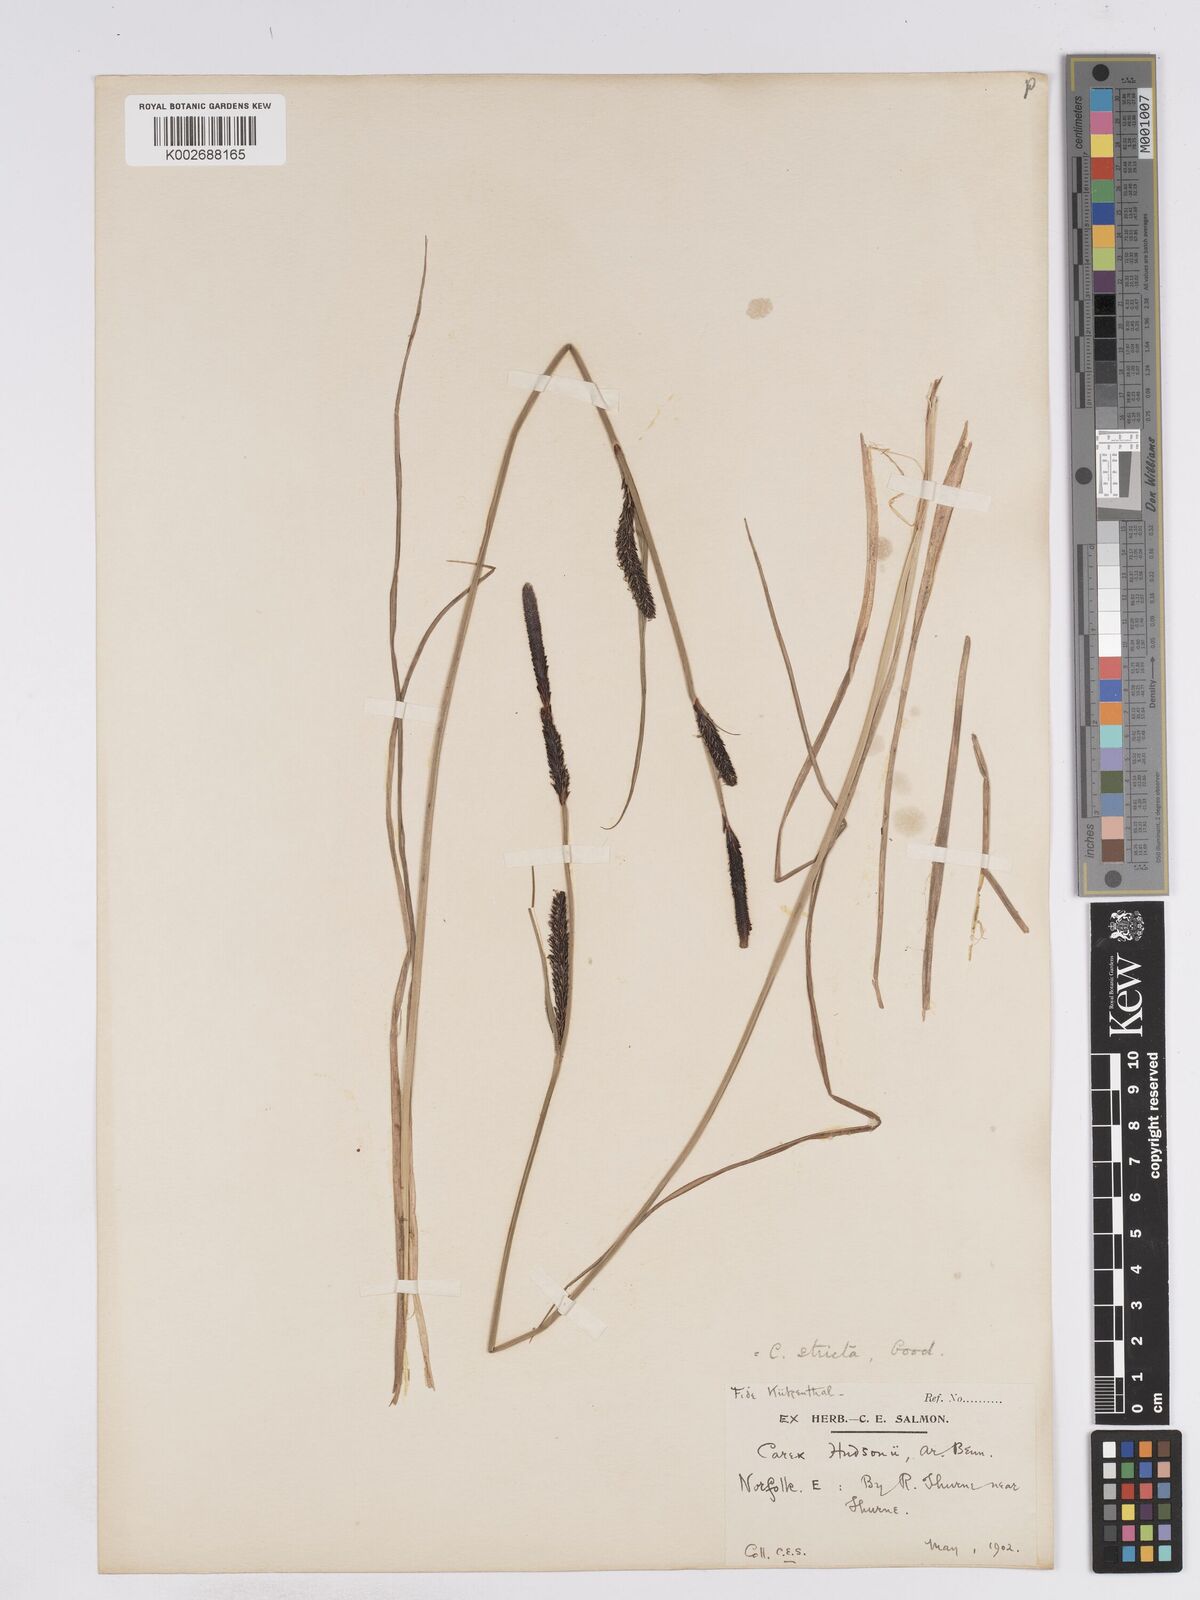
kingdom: Plantae
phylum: Tracheophyta
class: Liliopsida
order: Poales
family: Cyperaceae
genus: Carex
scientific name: Carex elata
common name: Tufted sedge
